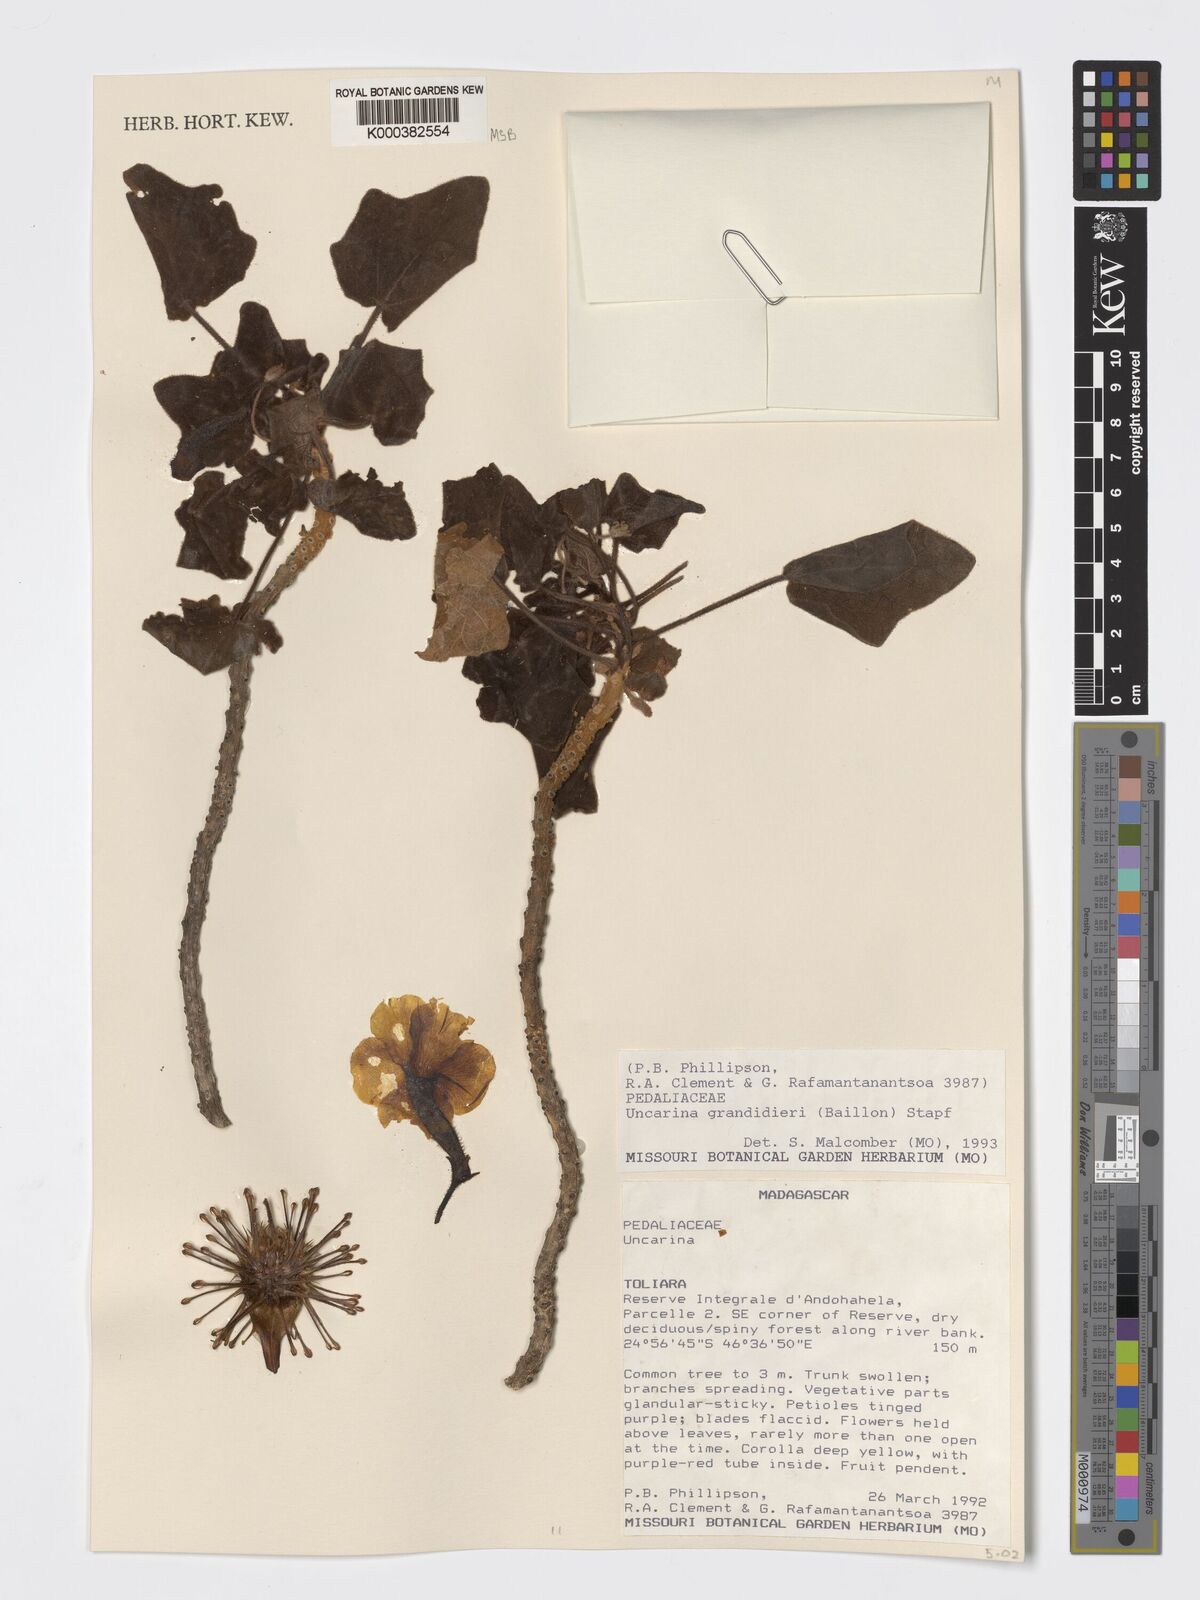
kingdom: Plantae
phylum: Tracheophyta
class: Magnoliopsida
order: Lamiales
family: Pedaliaceae
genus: Uncarina
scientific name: Uncarina
